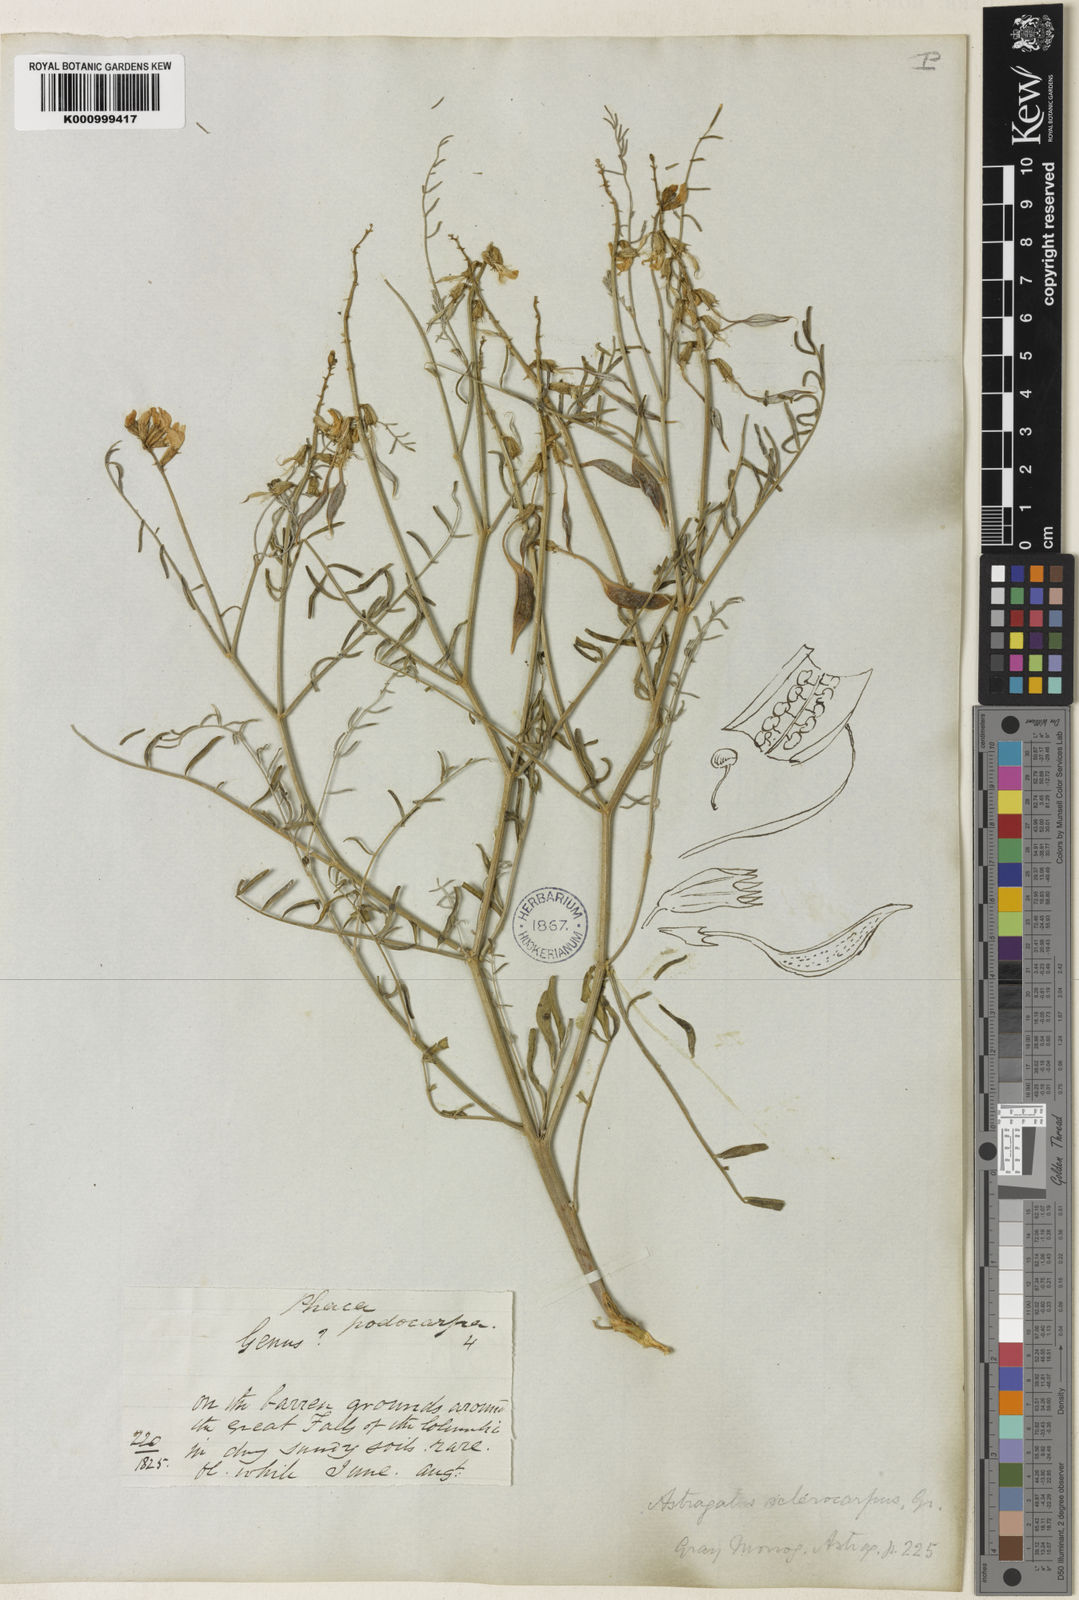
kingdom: Plantae
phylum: Tracheophyta
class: Magnoliopsida
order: Fabales
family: Fabaceae
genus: Astragalus
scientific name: Astragalus sclerocarpus
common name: The dalles milk-vetch
